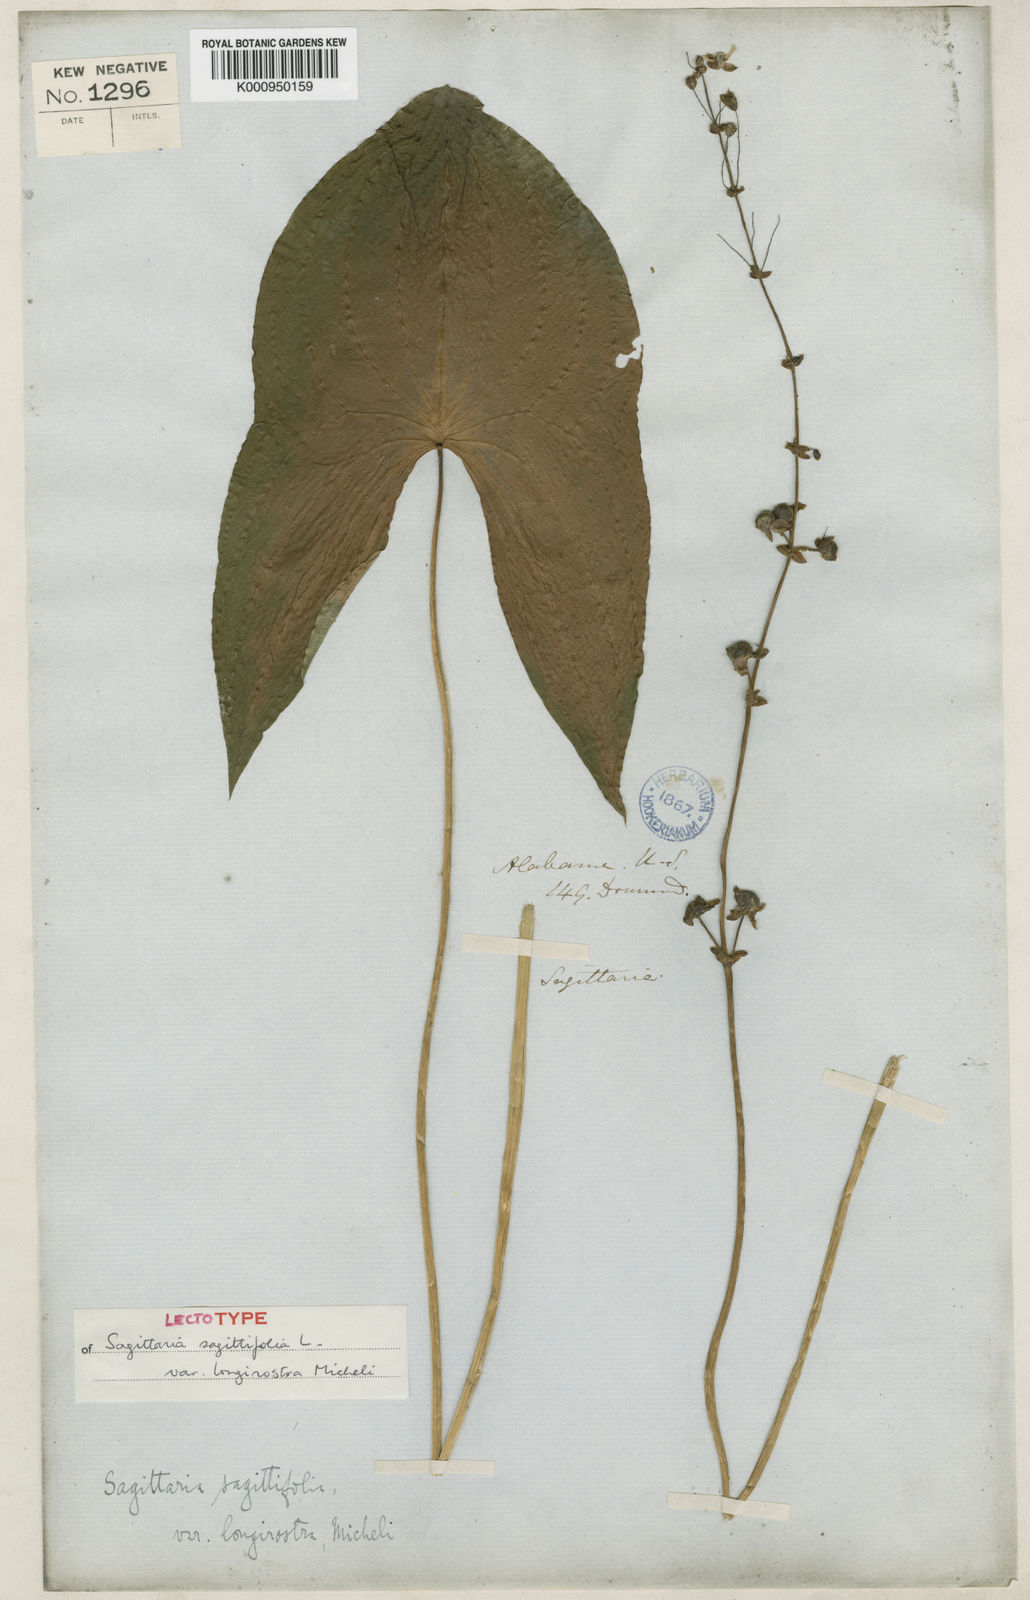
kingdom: Plantae
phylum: Tracheophyta
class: Liliopsida
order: Alismatales
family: Alismataceae
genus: Sagittaria
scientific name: Sagittaria latifolia
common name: Duck-potato
